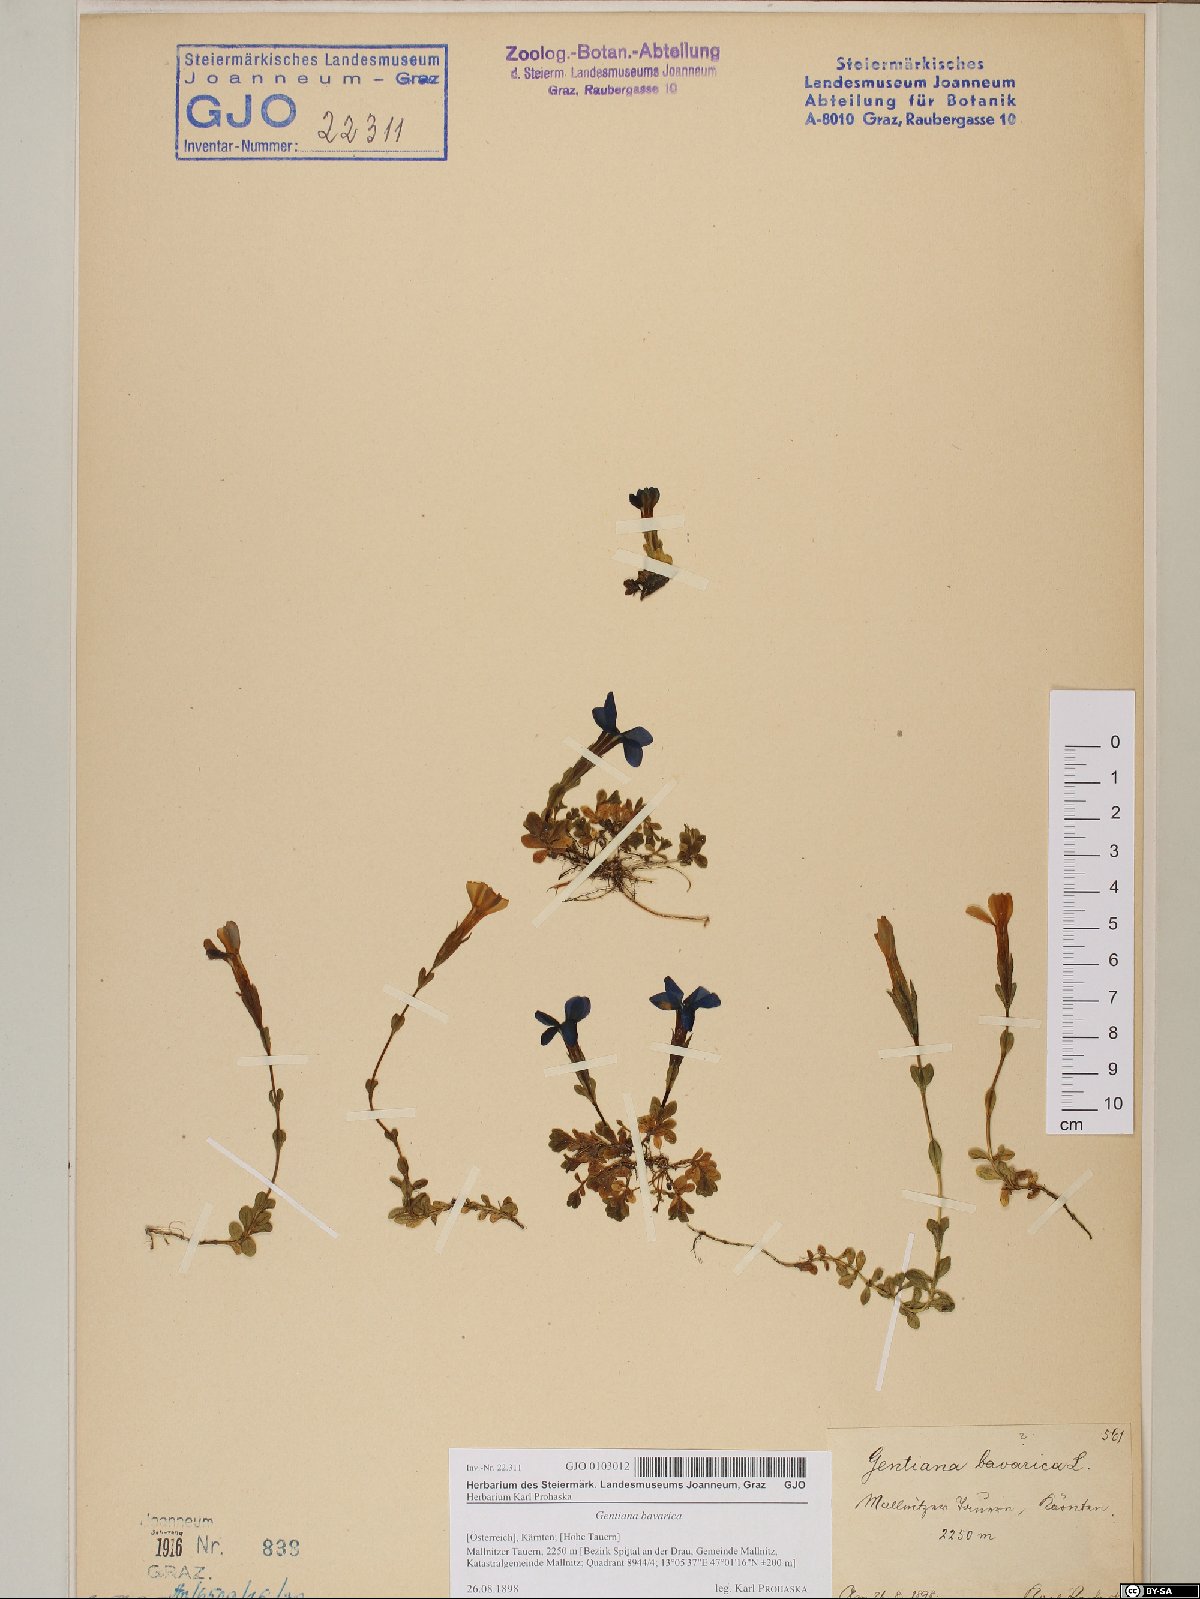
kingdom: Plantae
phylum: Tracheophyta
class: Magnoliopsida
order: Gentianales
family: Gentianaceae
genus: Gentiana
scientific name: Gentiana bavarica
